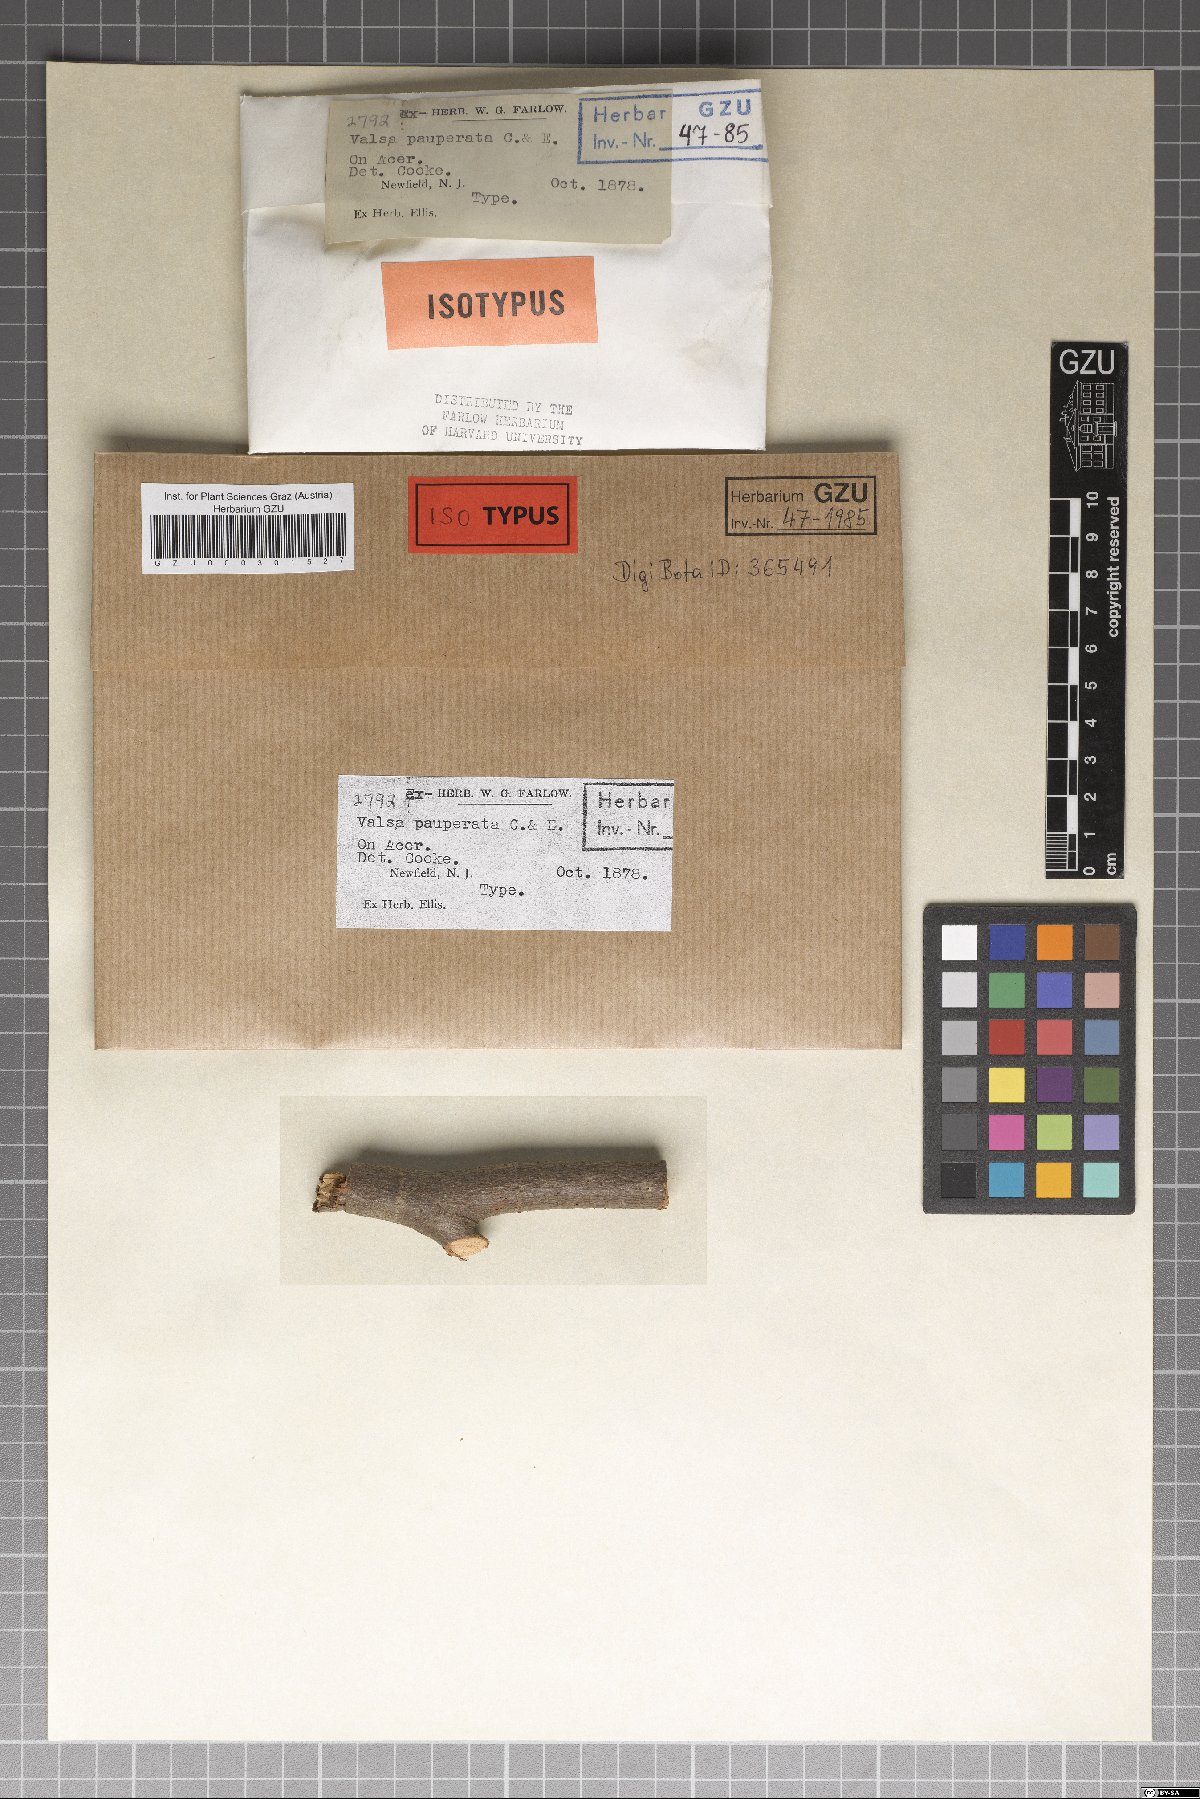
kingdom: Fungi
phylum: Ascomycota
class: Sordariomycetes
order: Diaporthales
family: Valsaceae
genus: Cytospora
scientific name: Cytospora populina
